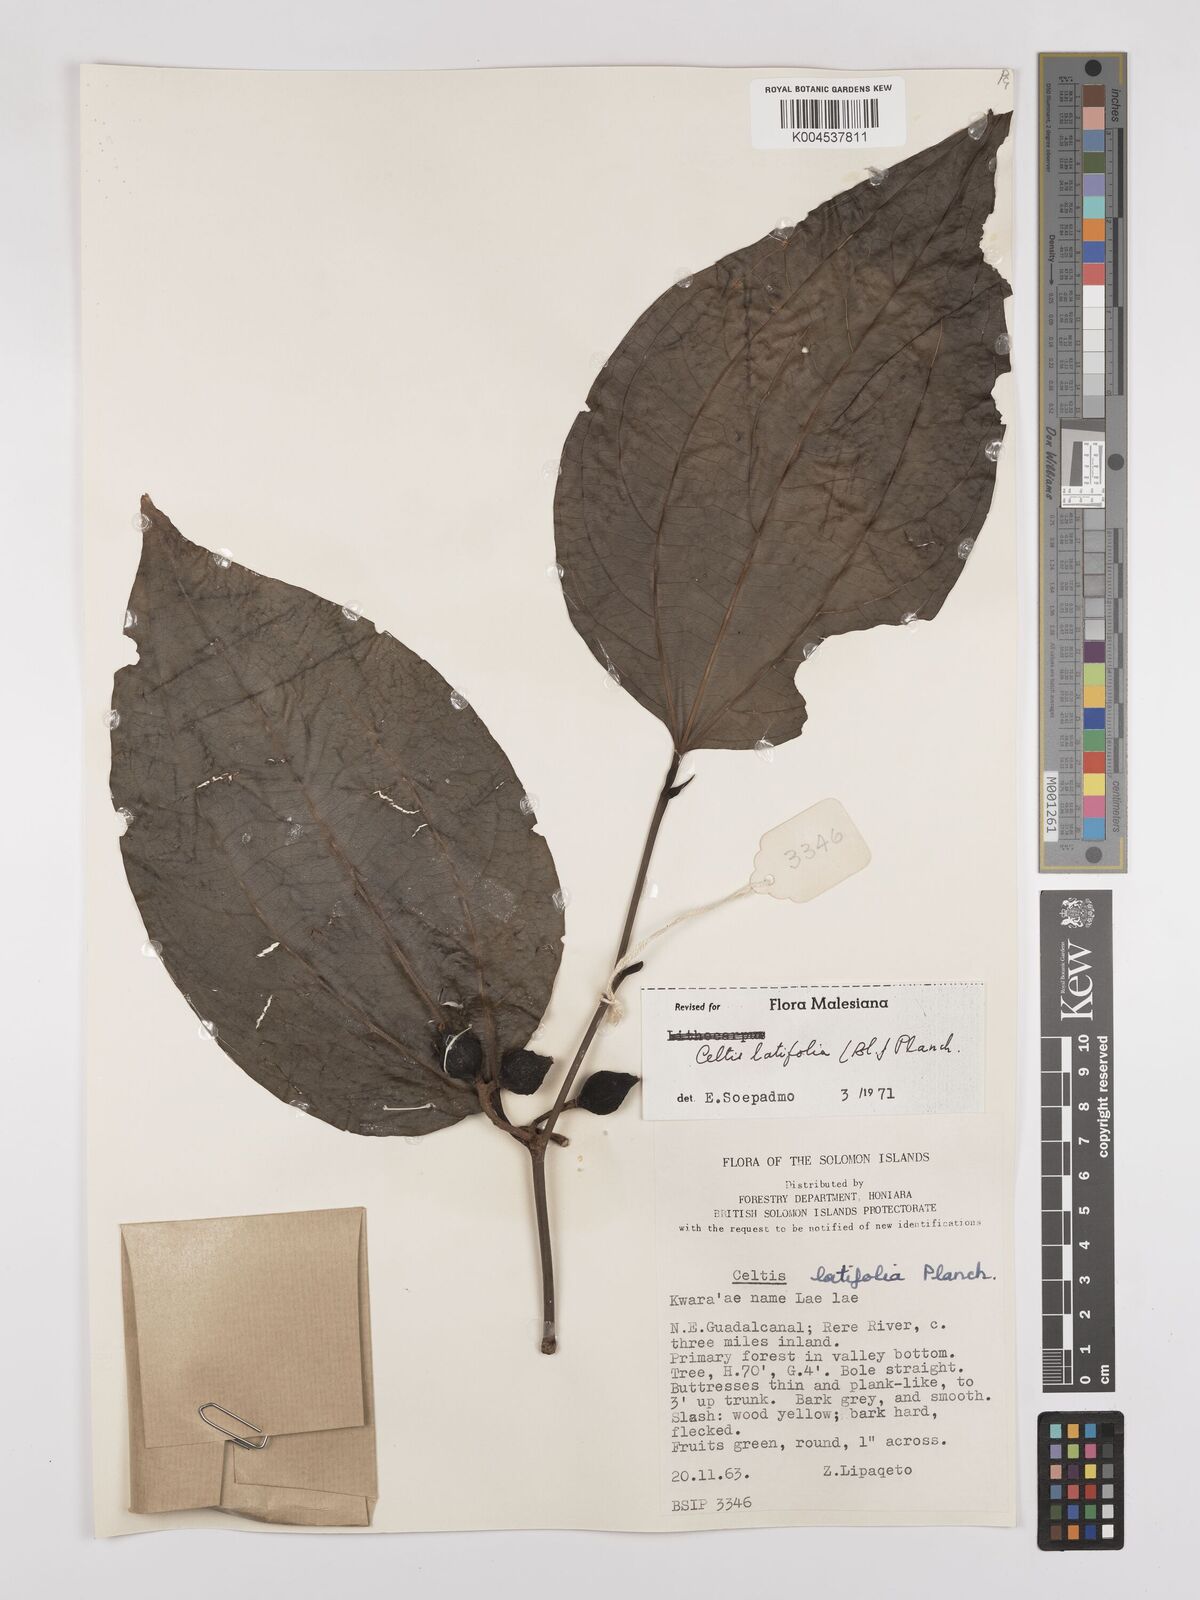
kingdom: Plantae
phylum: Tracheophyta
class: Magnoliopsida
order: Rosales
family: Cannabaceae
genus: Celtis
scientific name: Celtis latifolia
